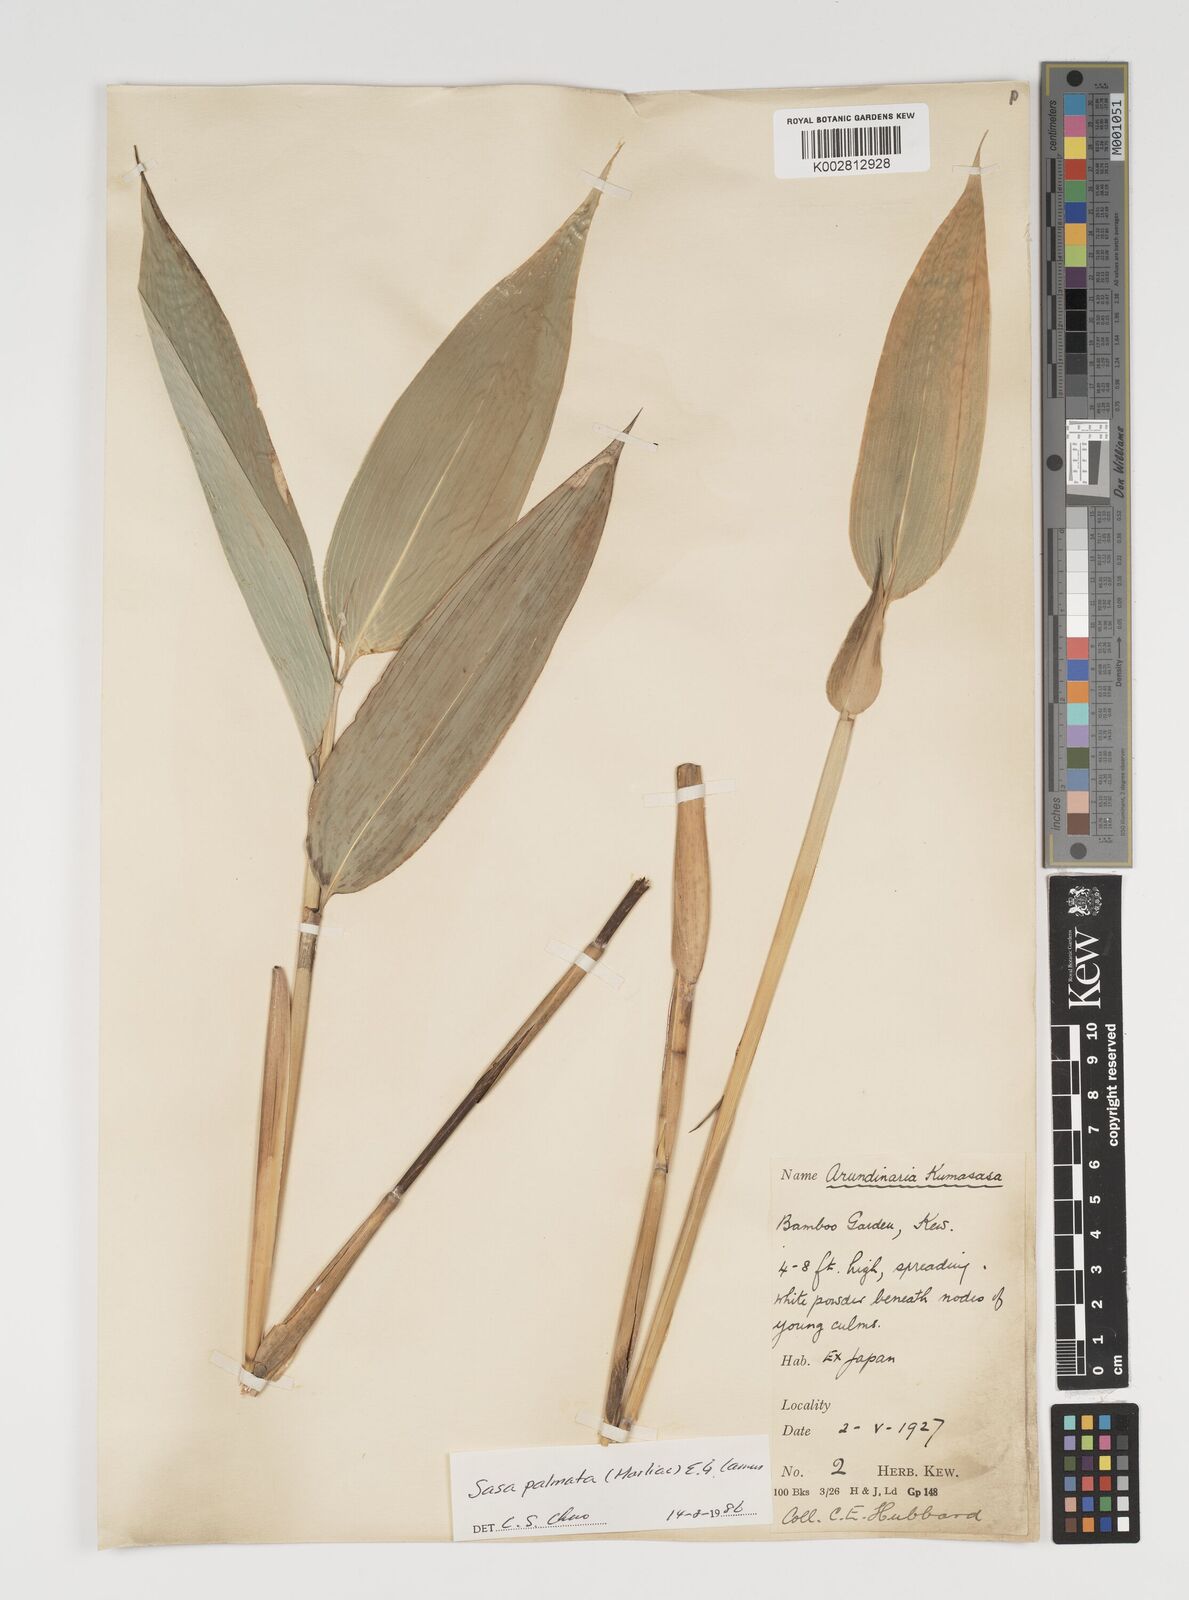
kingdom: Plantae
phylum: Tracheophyta
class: Liliopsida
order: Poales
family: Poaceae
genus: Sasa
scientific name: Sasa palmata
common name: Broad-leaved bamboo
